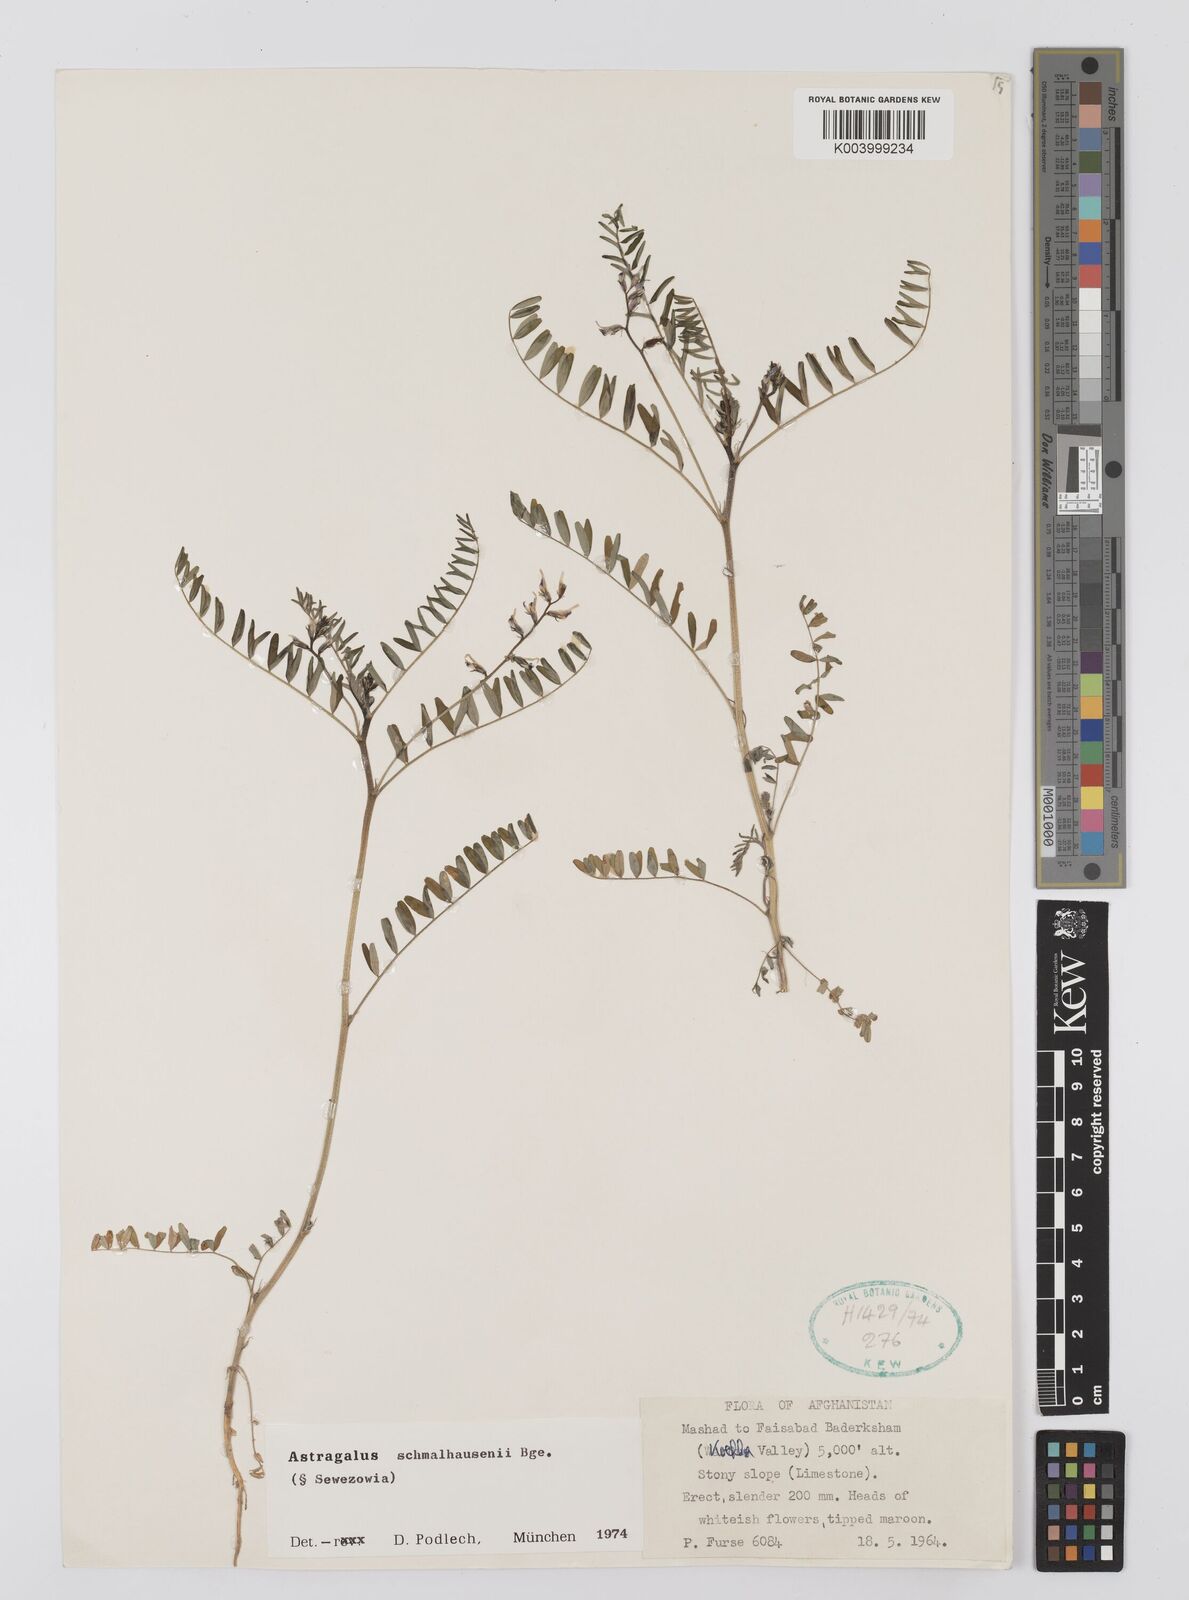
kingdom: Plantae
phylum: Tracheophyta
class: Magnoliopsida
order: Fabales
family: Fabaceae
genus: Astragalus
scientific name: Astragalus schmalhausenii
